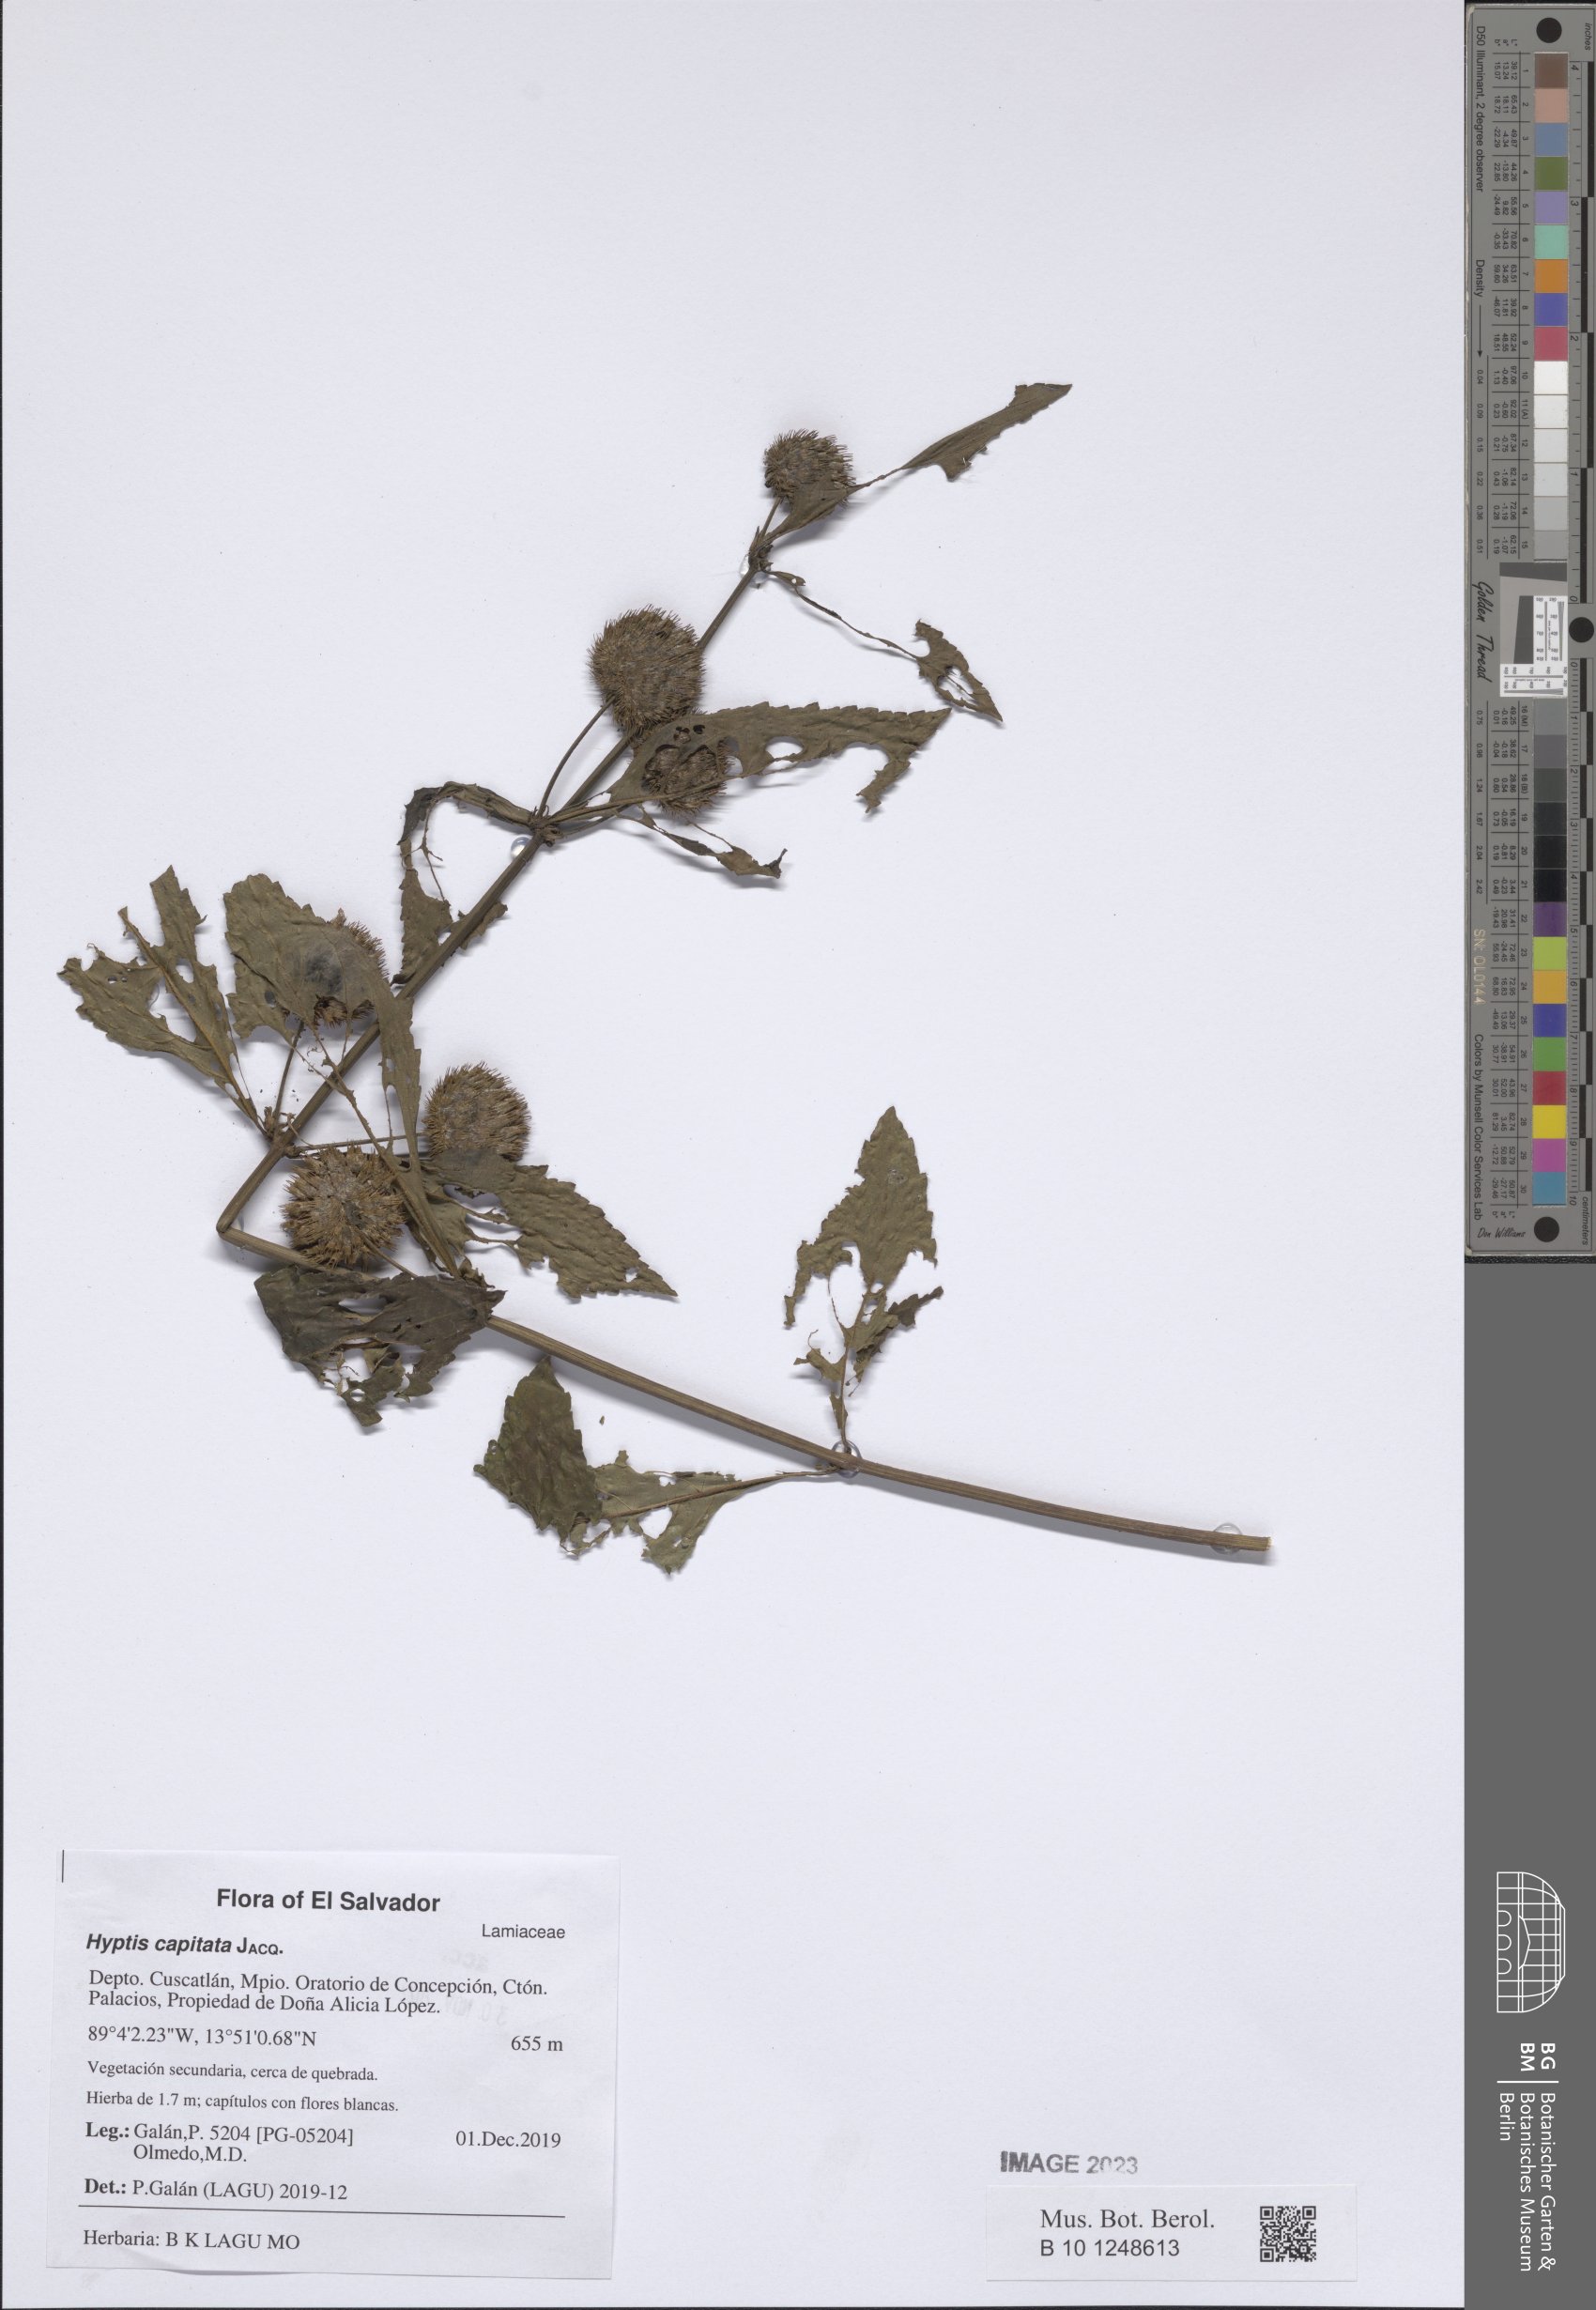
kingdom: Plantae
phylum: Tracheophyta
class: Magnoliopsida
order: Lamiales
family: Lamiaceae
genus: Hyptis
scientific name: Hyptis capitata
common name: False ironwort
